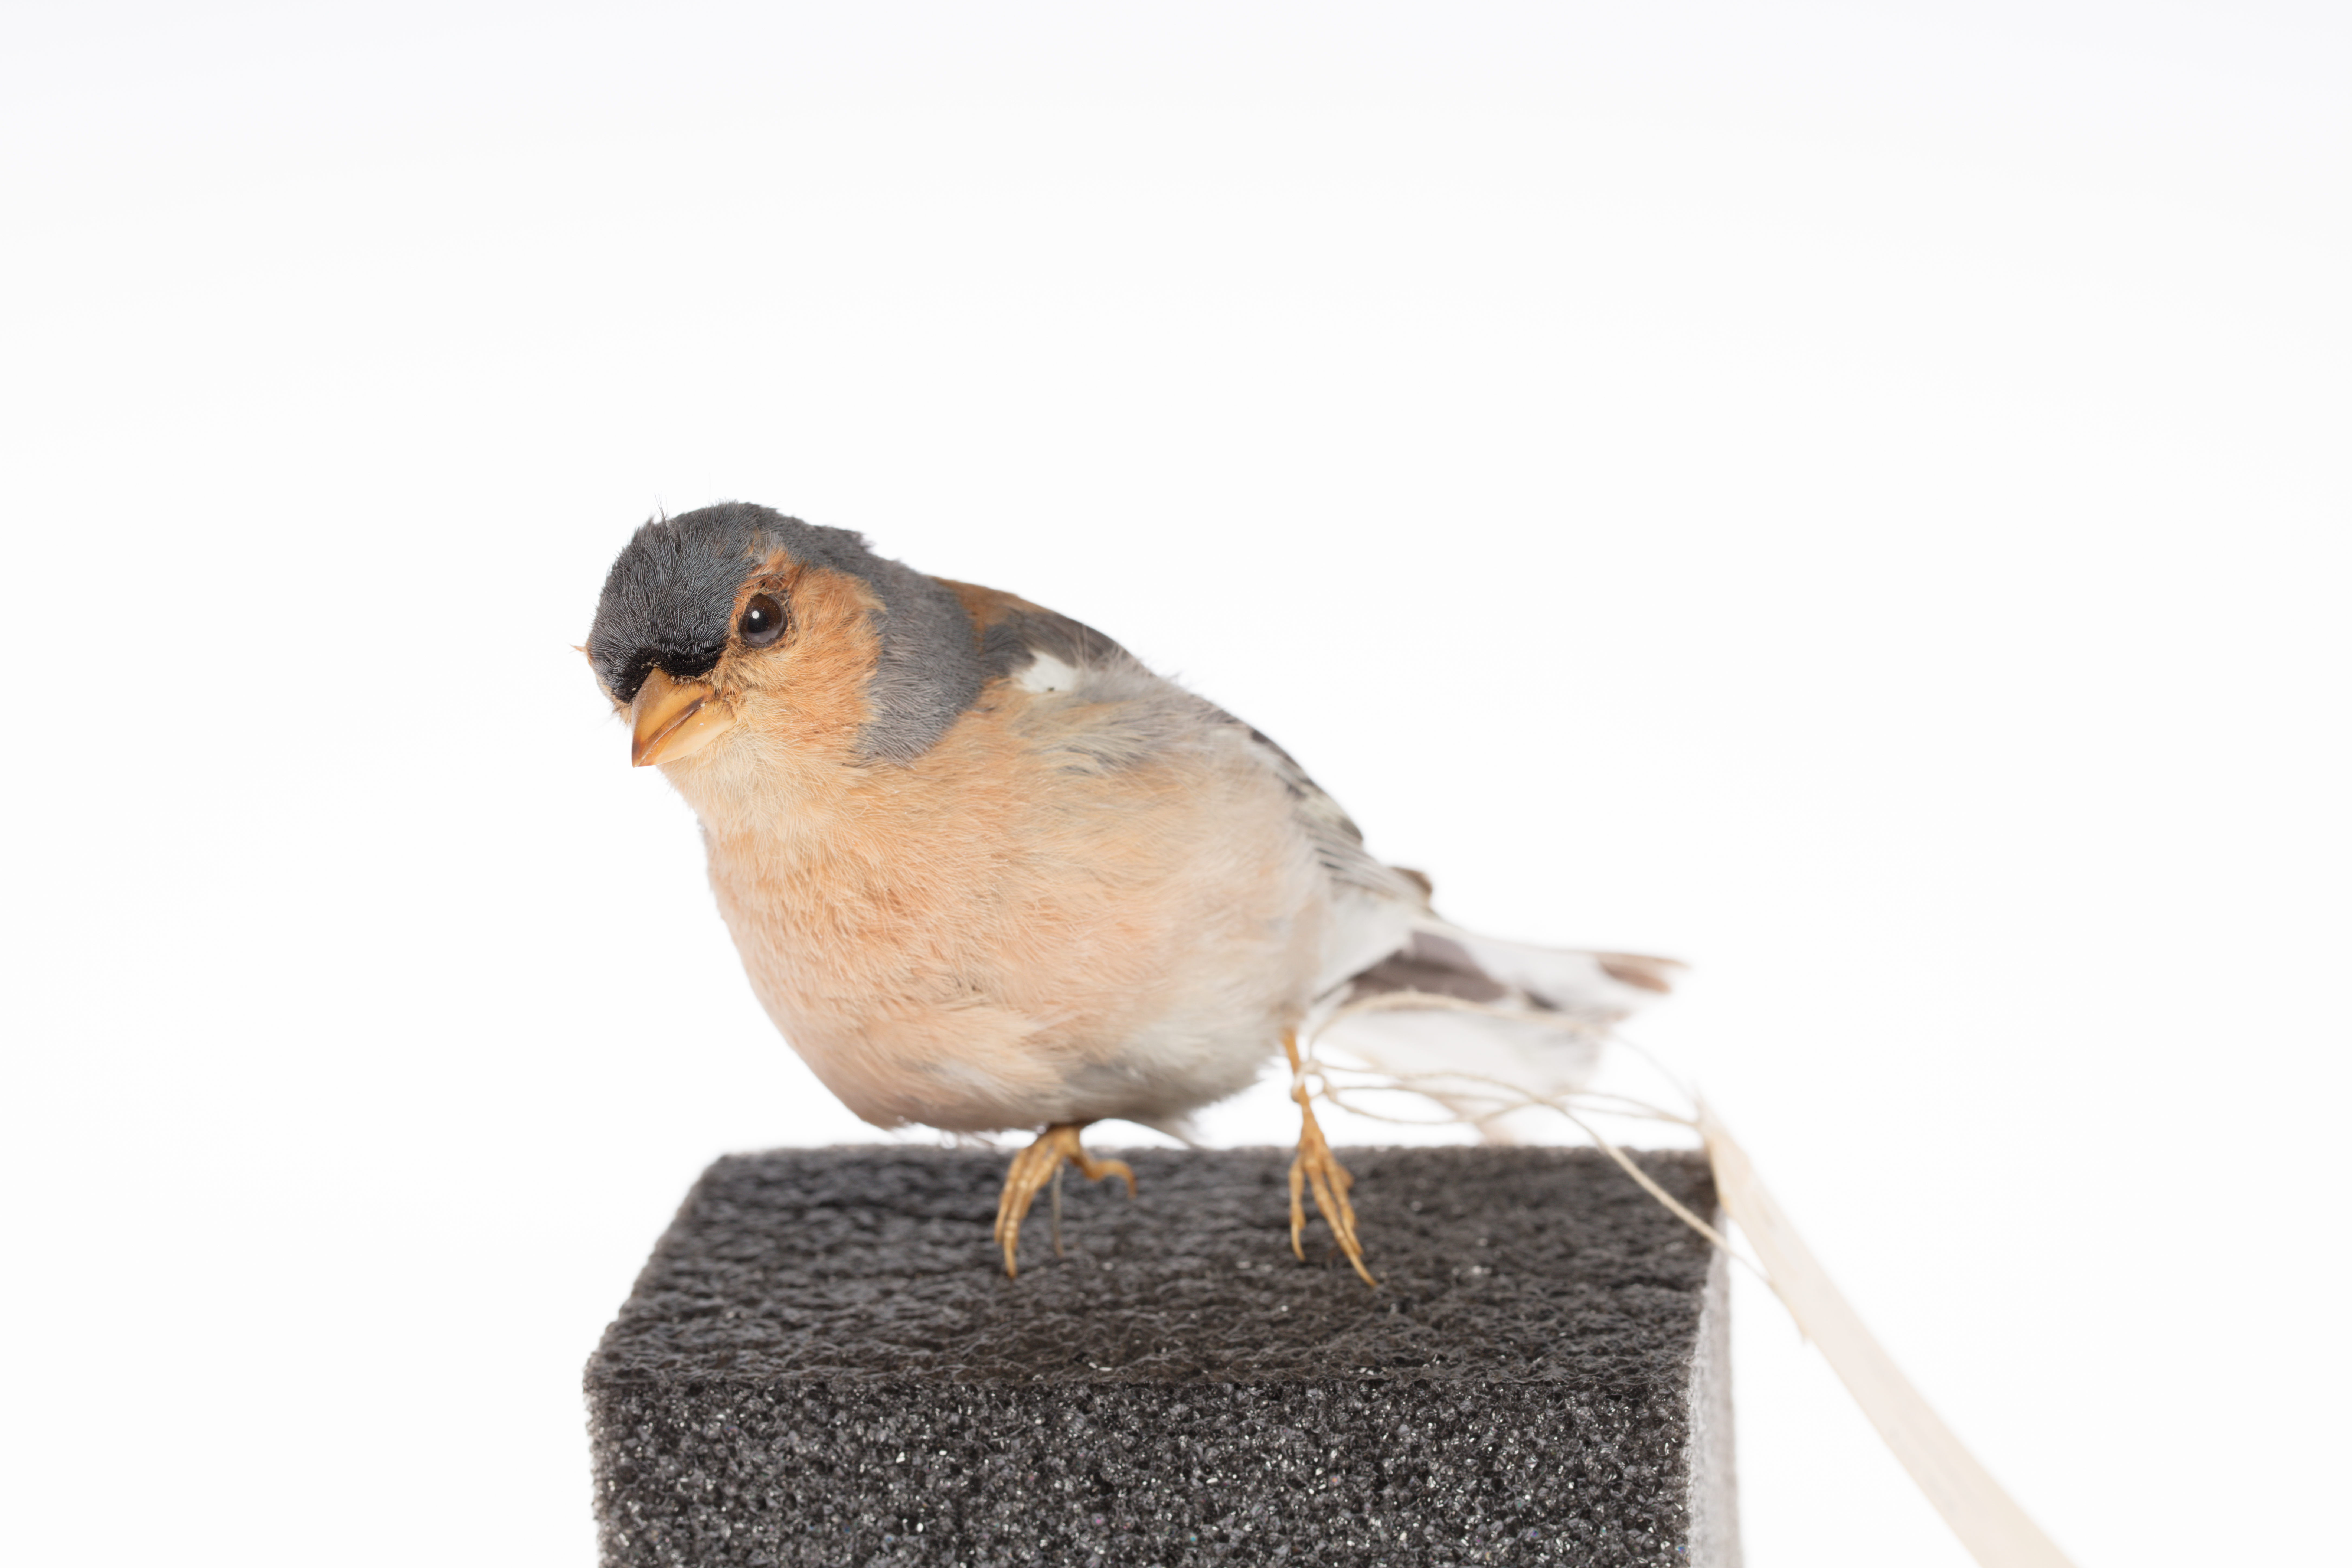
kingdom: Animalia
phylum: Chordata
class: Aves
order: Passeriformes
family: Fringillidae
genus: Fringilla
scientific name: Fringilla coelebs
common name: Common chaffinch
